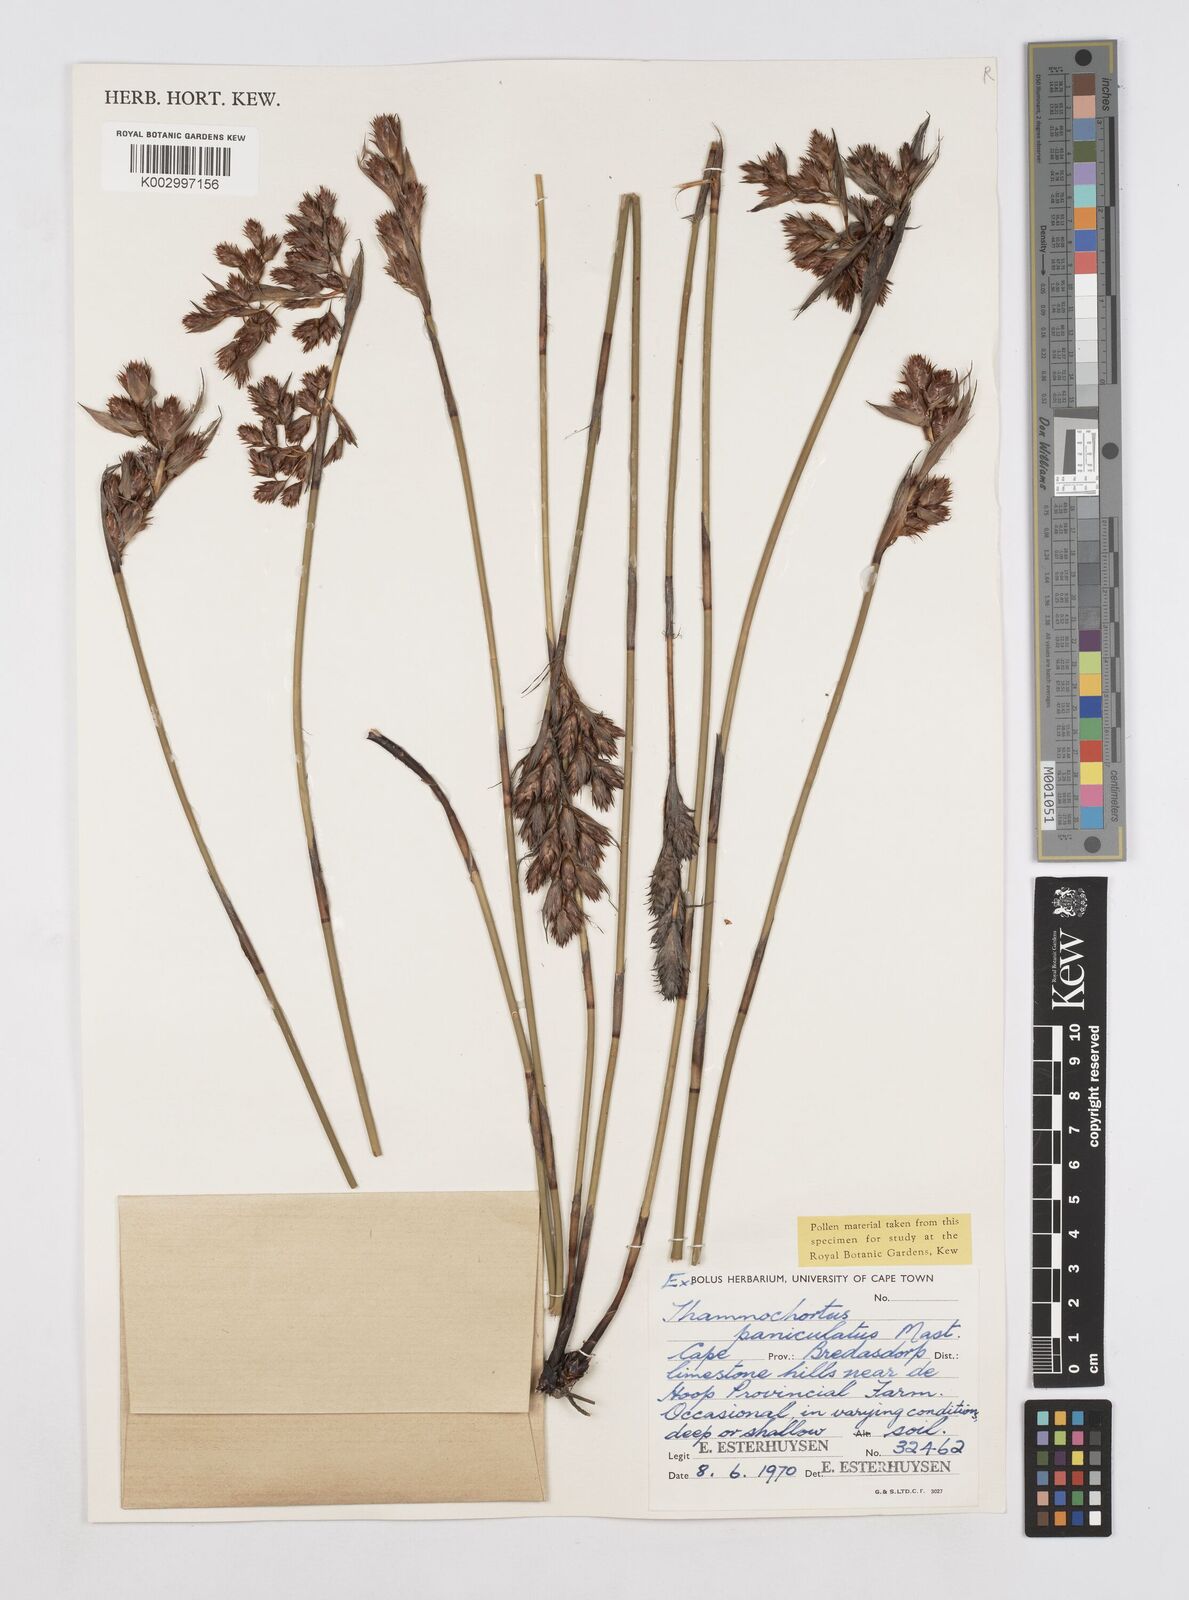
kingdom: Plantae
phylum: Tracheophyta
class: Liliopsida
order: Poales
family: Restionaceae
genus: Thamnochortus
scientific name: Thamnochortus paniculatus
